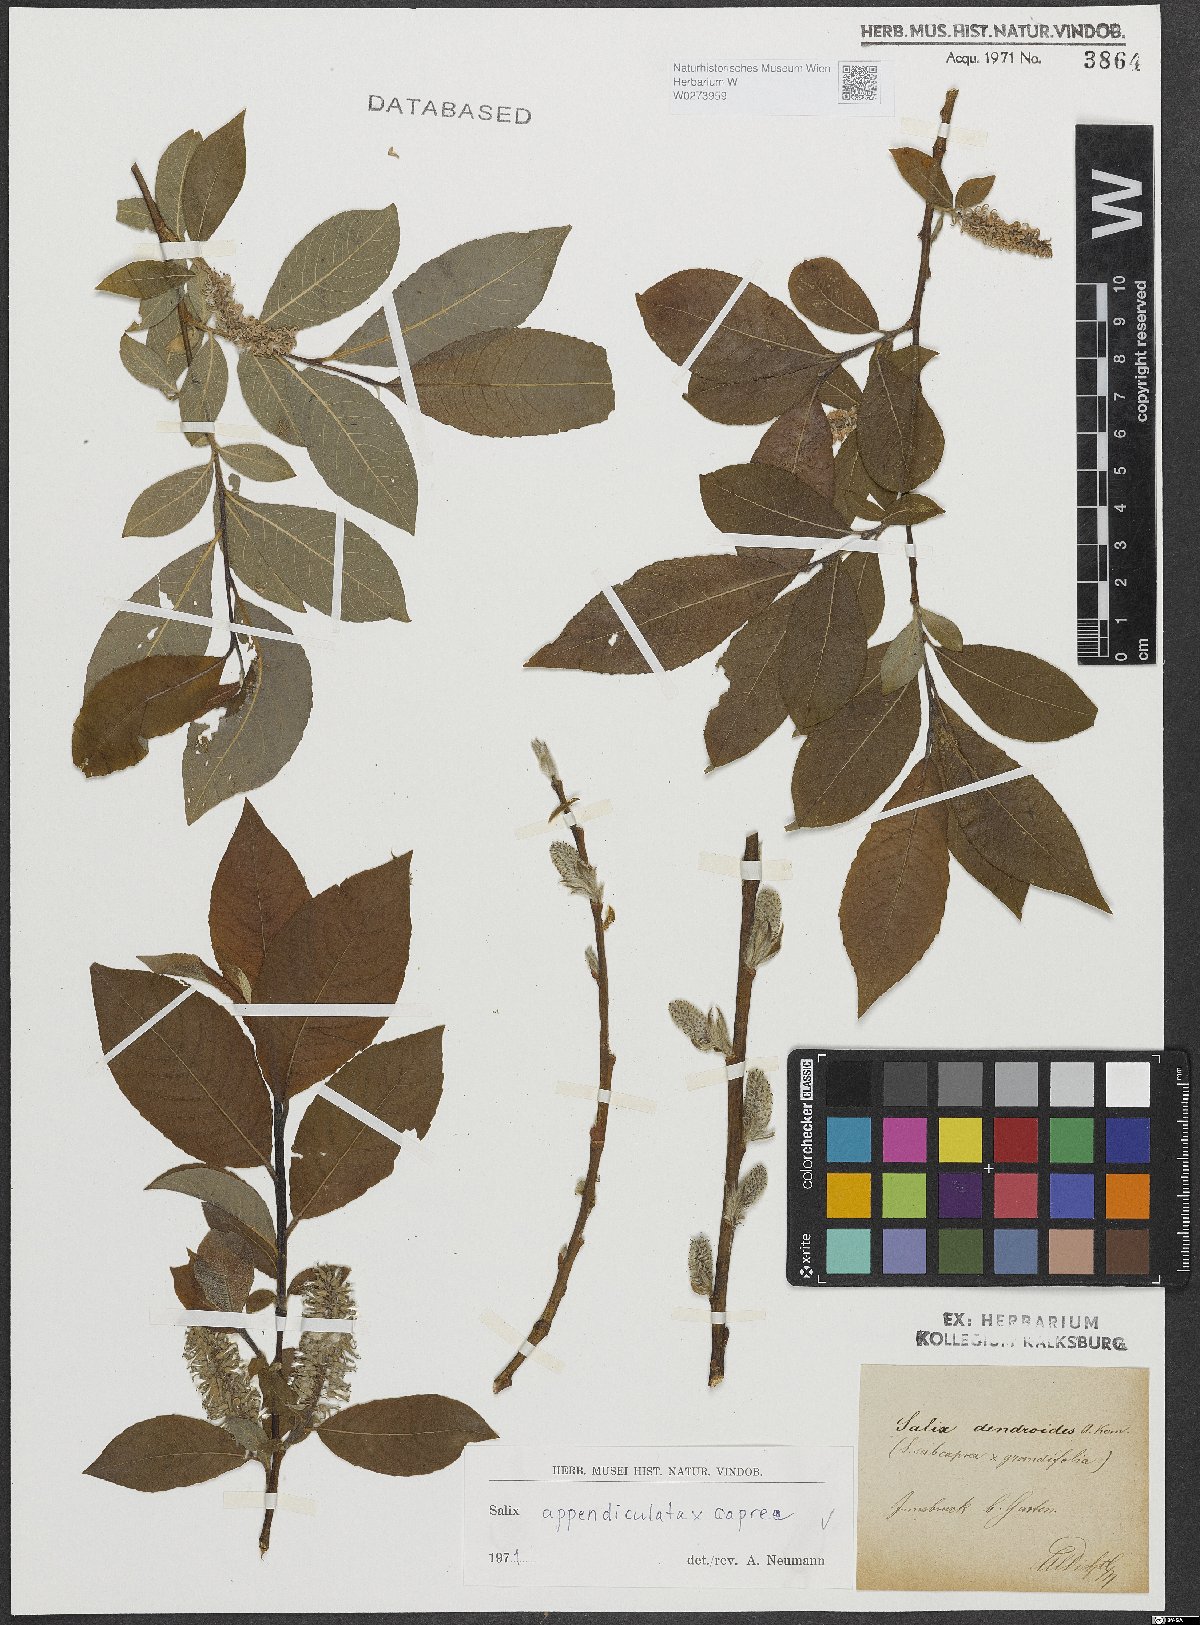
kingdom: Plantae
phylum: Tracheophyta
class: Magnoliopsida
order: Malpighiales
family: Salicaceae
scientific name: Salicaceae
